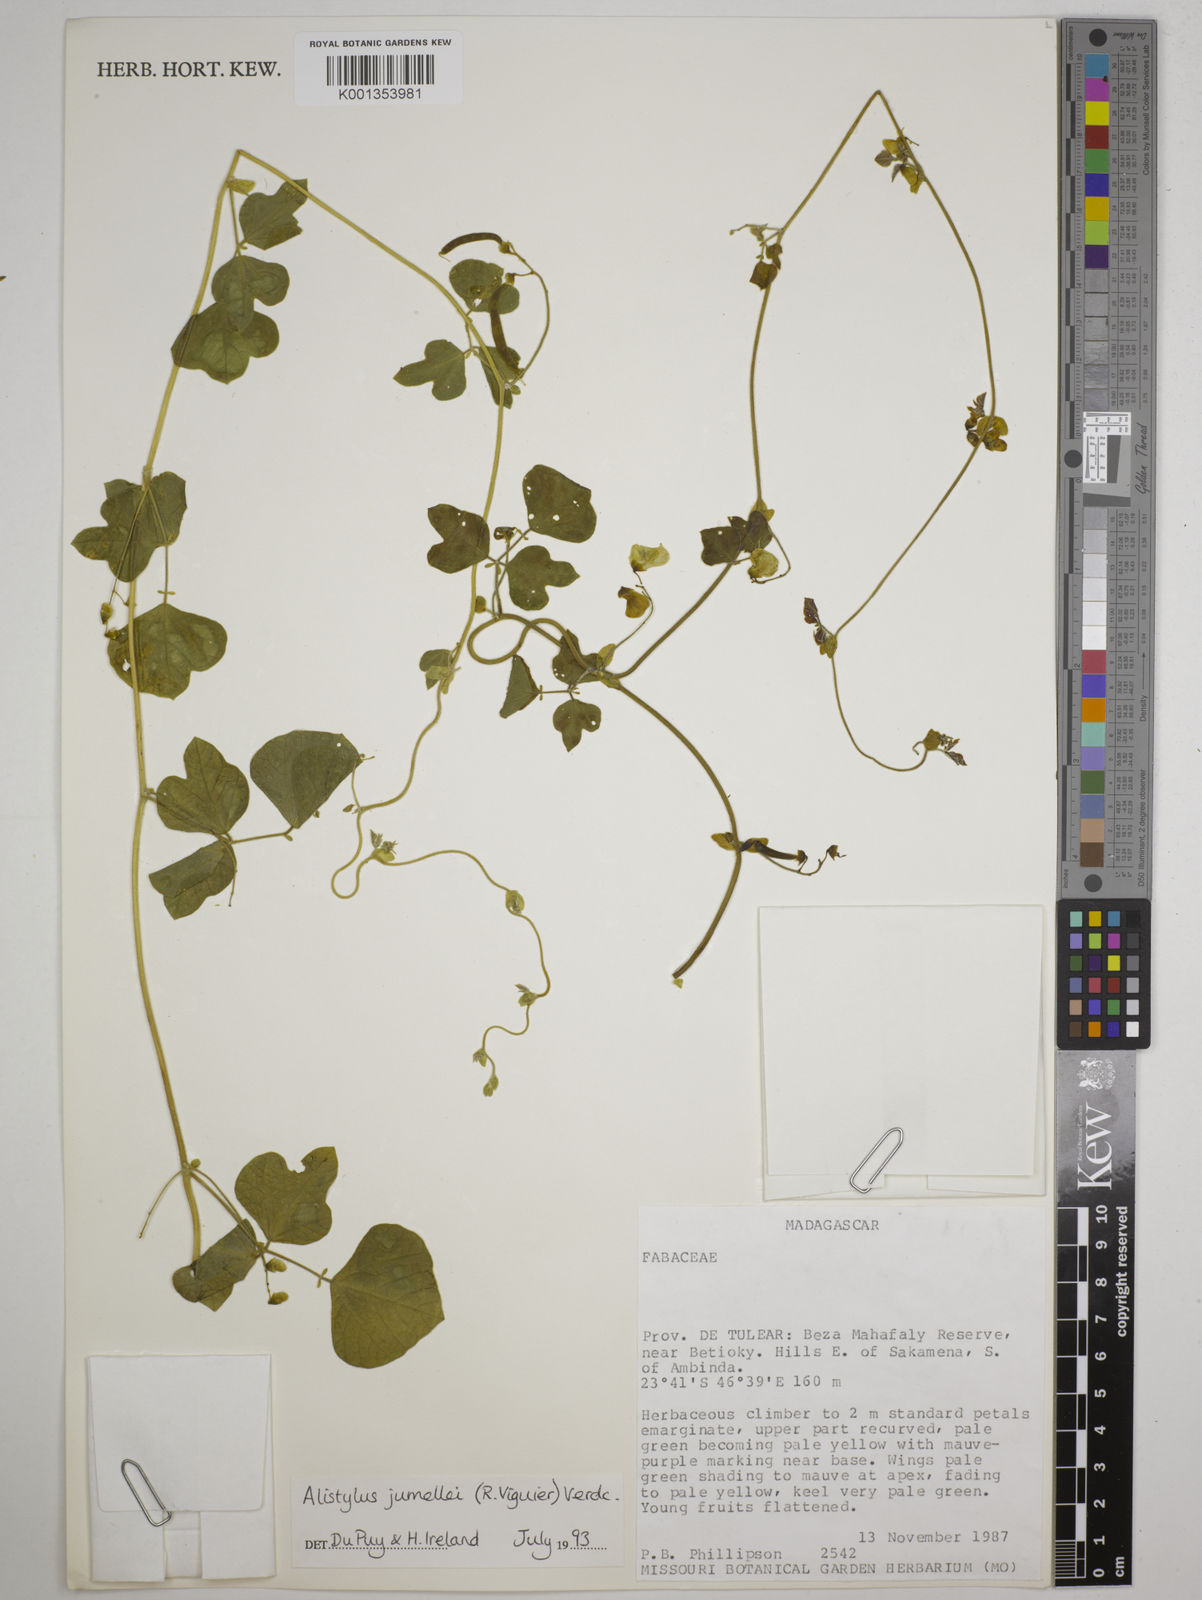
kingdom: Plantae
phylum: Tracheophyta
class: Magnoliopsida
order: Fabales
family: Fabaceae
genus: Alistilus
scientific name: Alistilus jumellei
